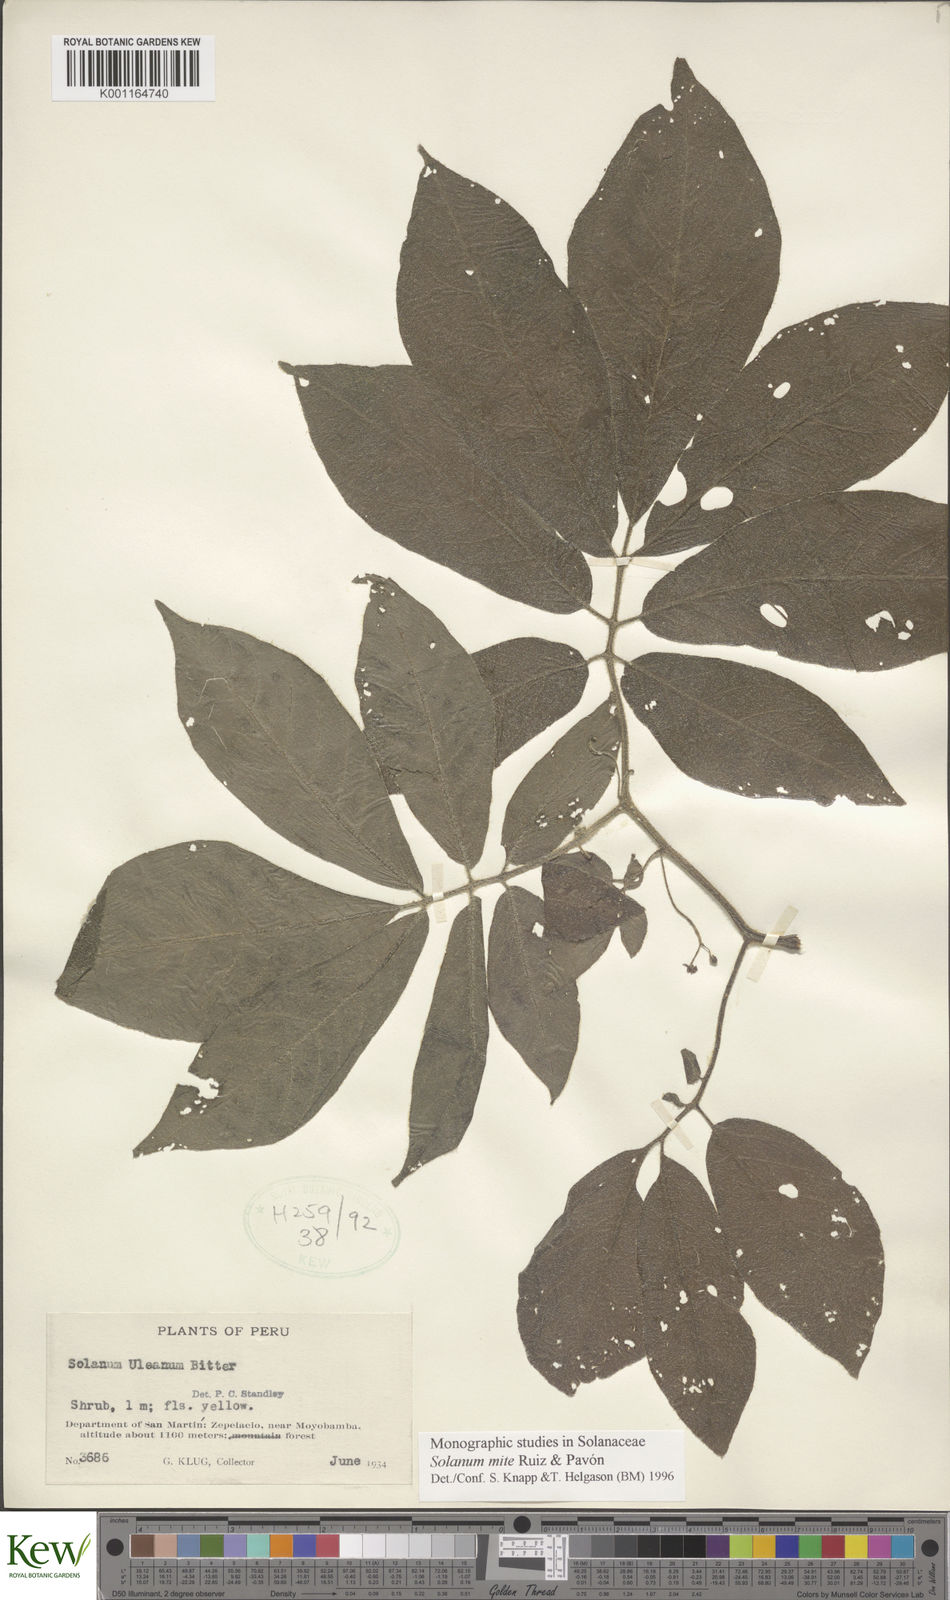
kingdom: Plantae
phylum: Tracheophyta
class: Magnoliopsida
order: Solanales
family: Solanaceae
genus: Solanum
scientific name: Solanum mite
